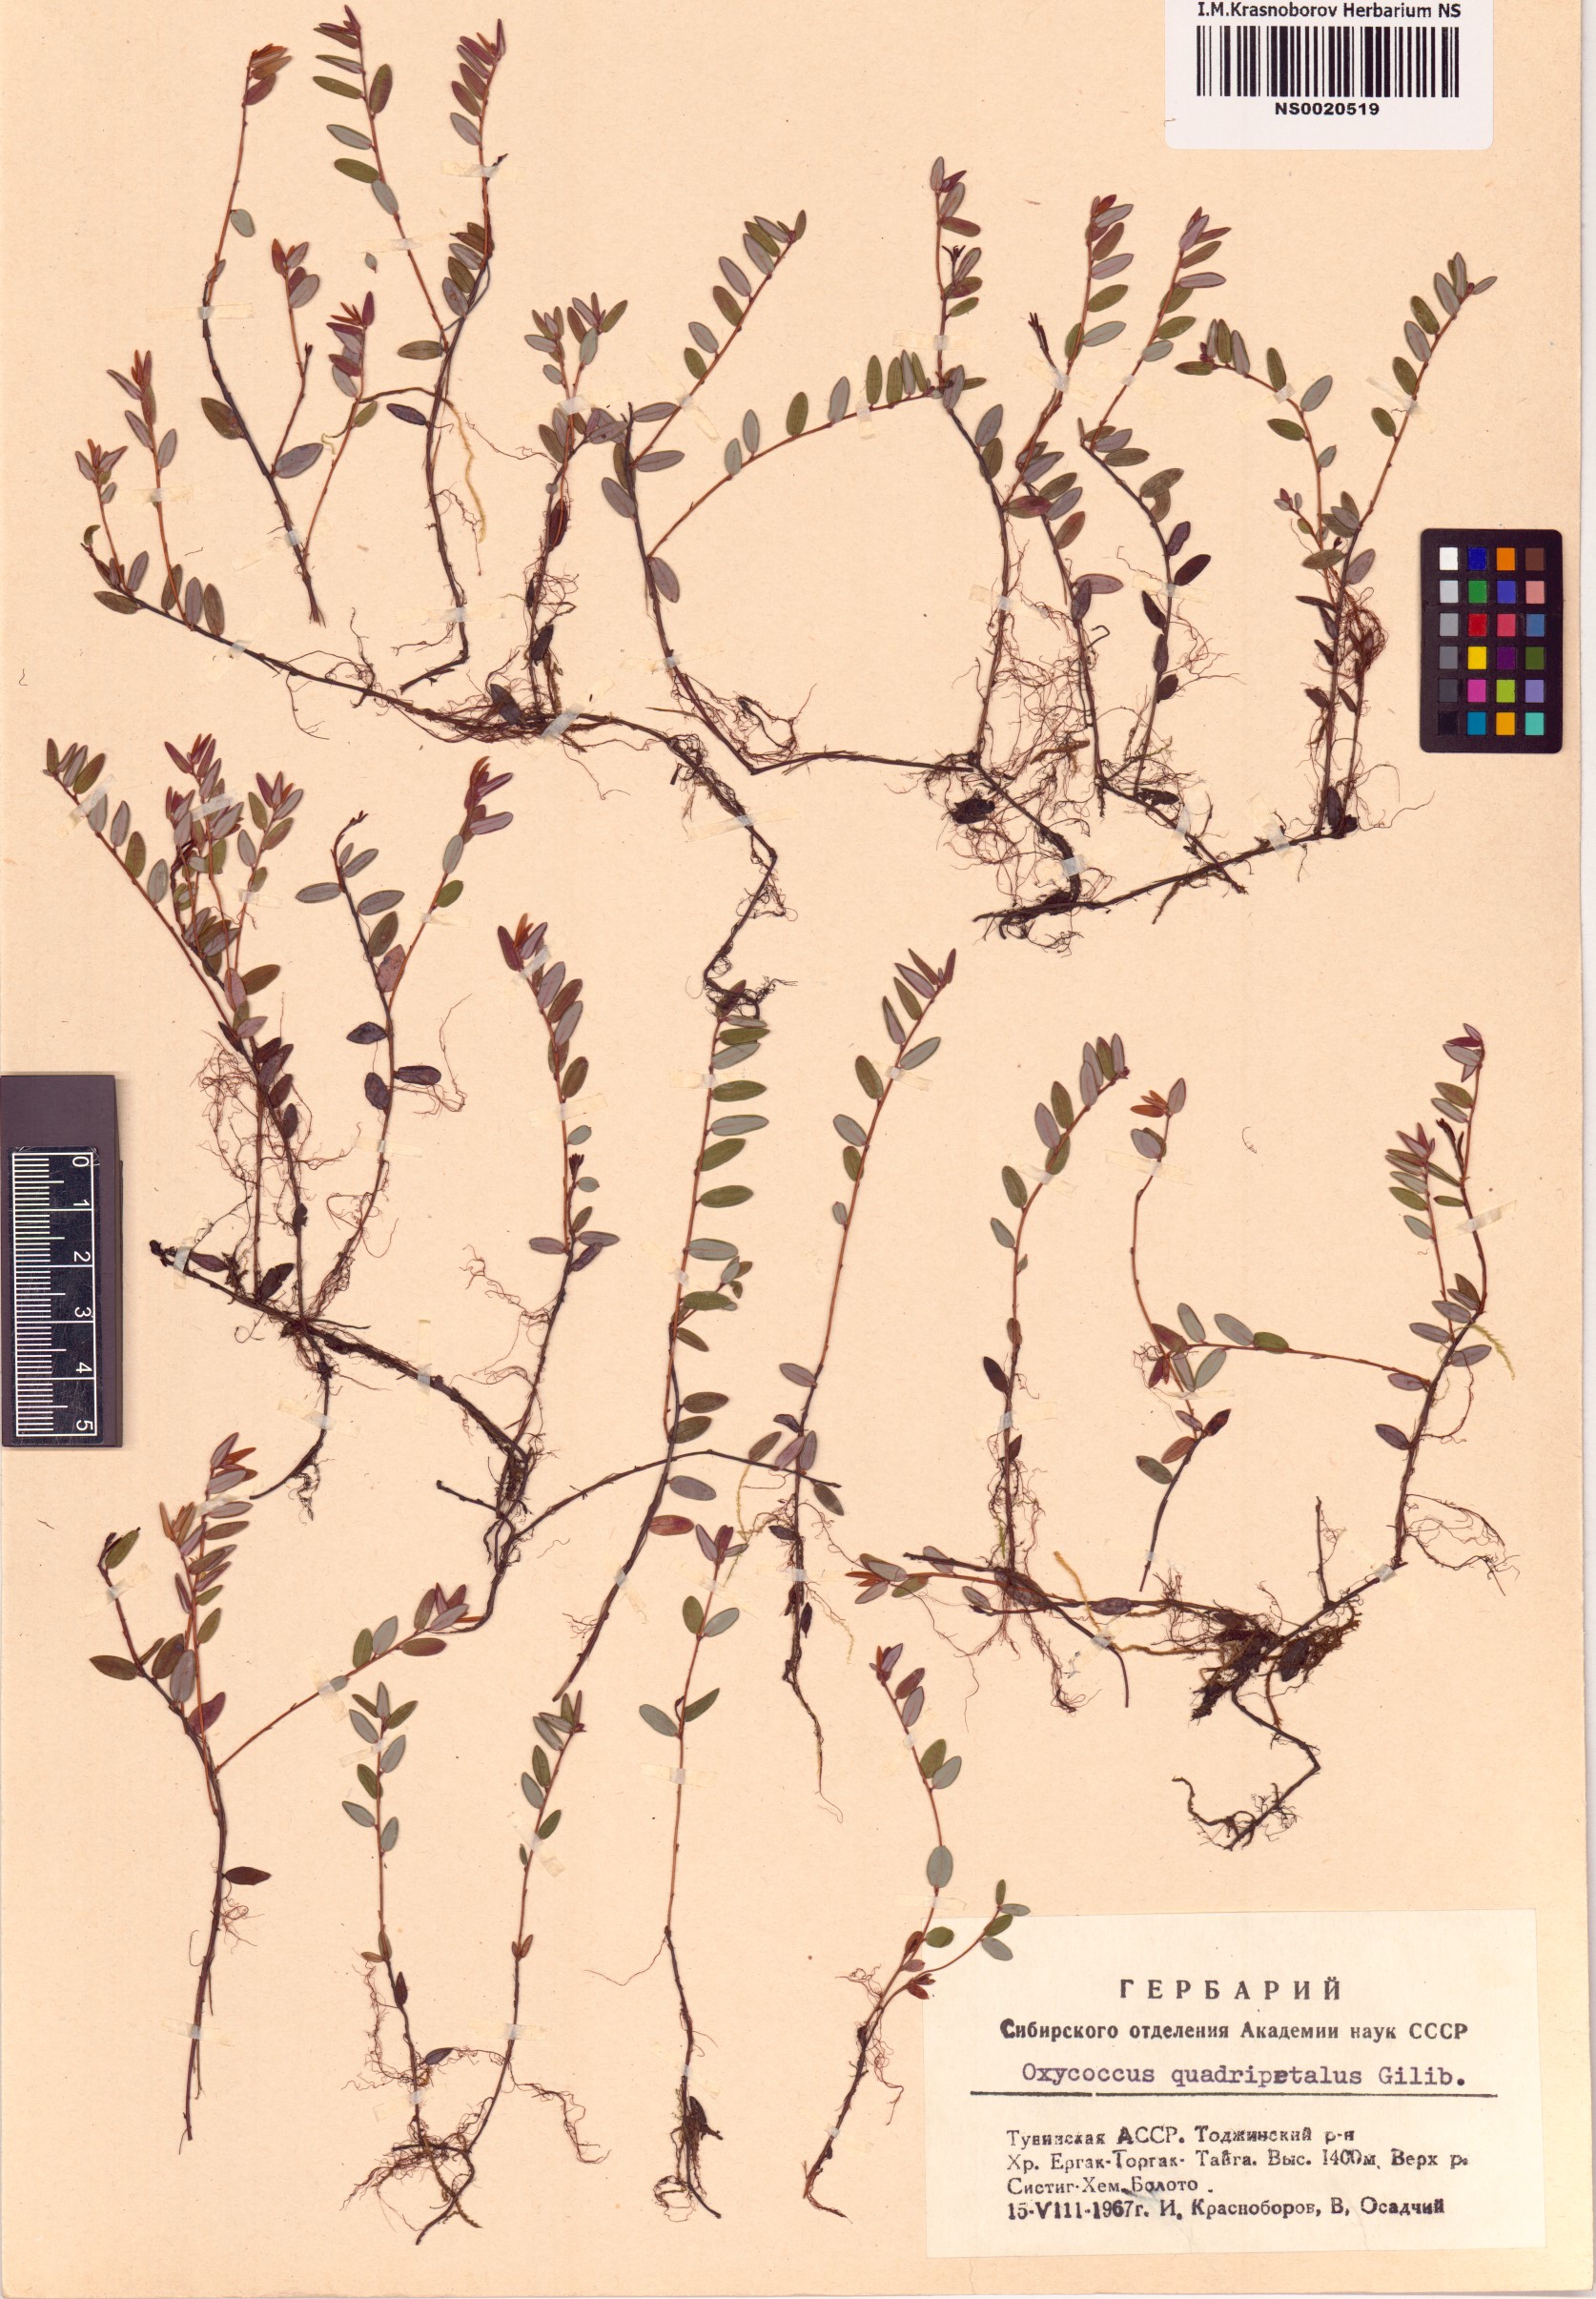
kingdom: Plantae
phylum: Tracheophyta
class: Magnoliopsida
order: Ericales
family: Ericaceae
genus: Vaccinium
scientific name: Vaccinium oxycoccos
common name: Cranberry
